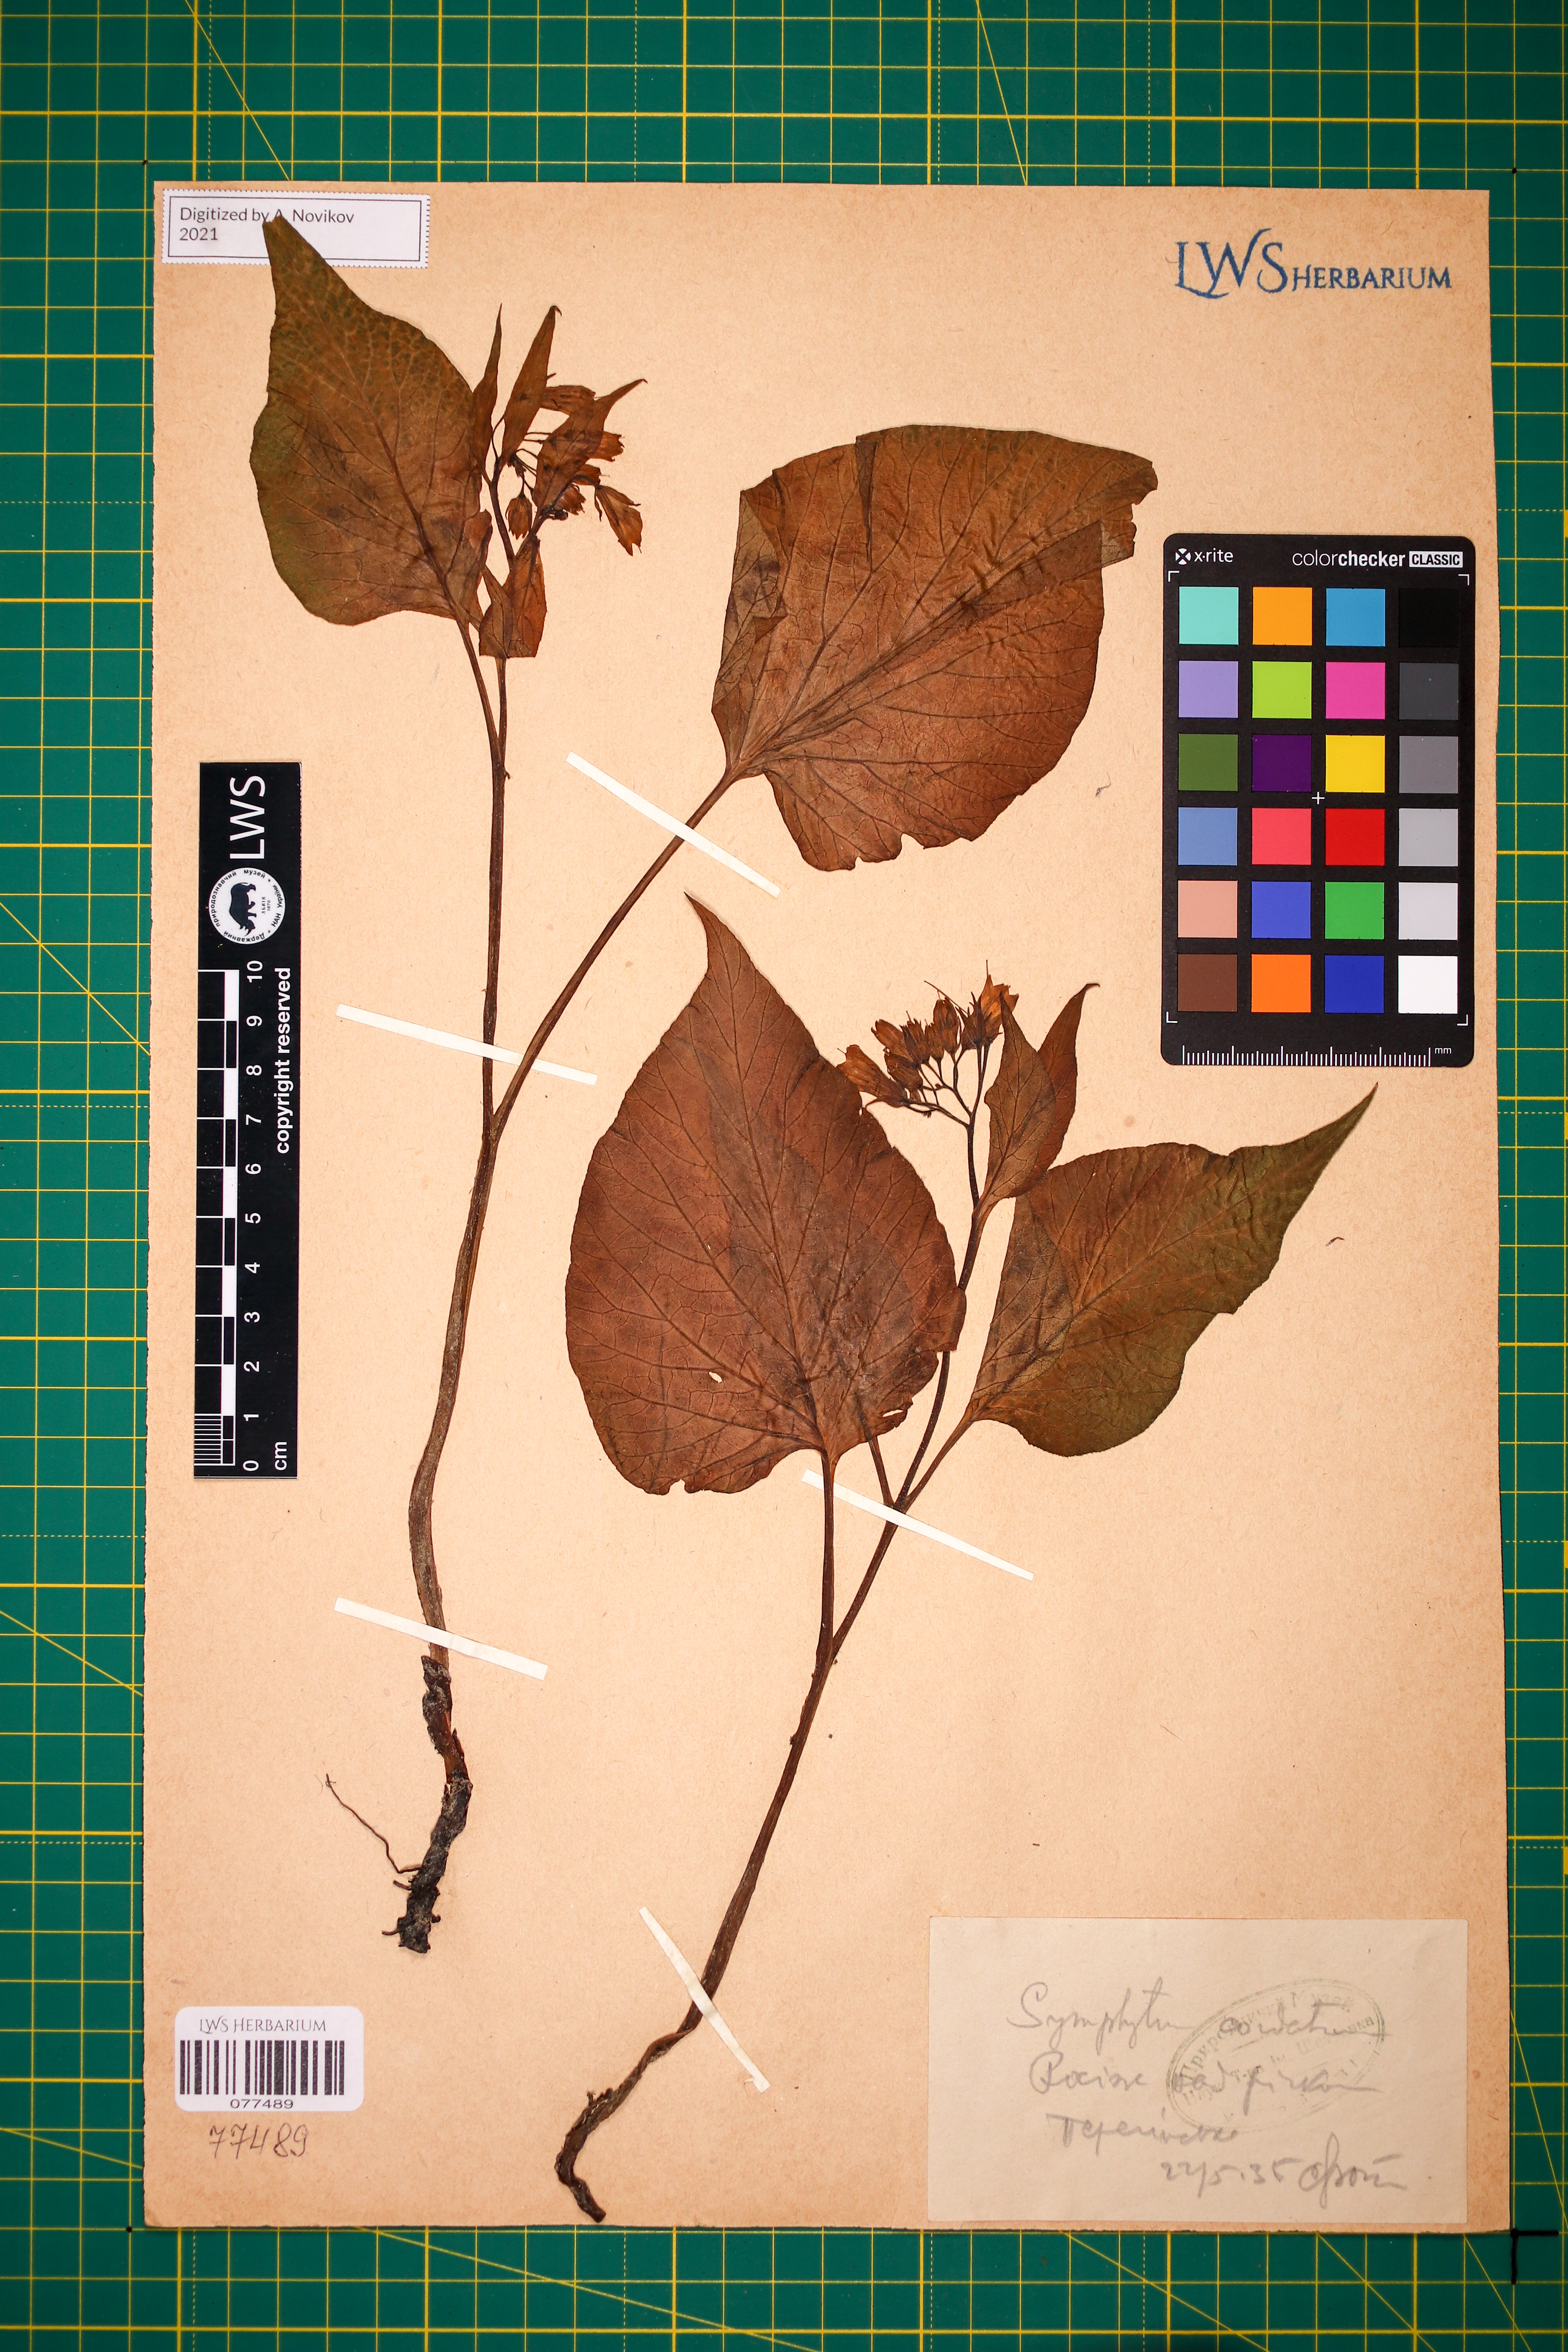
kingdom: Plantae
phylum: Tracheophyta
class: Magnoliopsida
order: Boraginales
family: Boraginaceae
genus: Symphytum
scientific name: Symphytum cordatum
